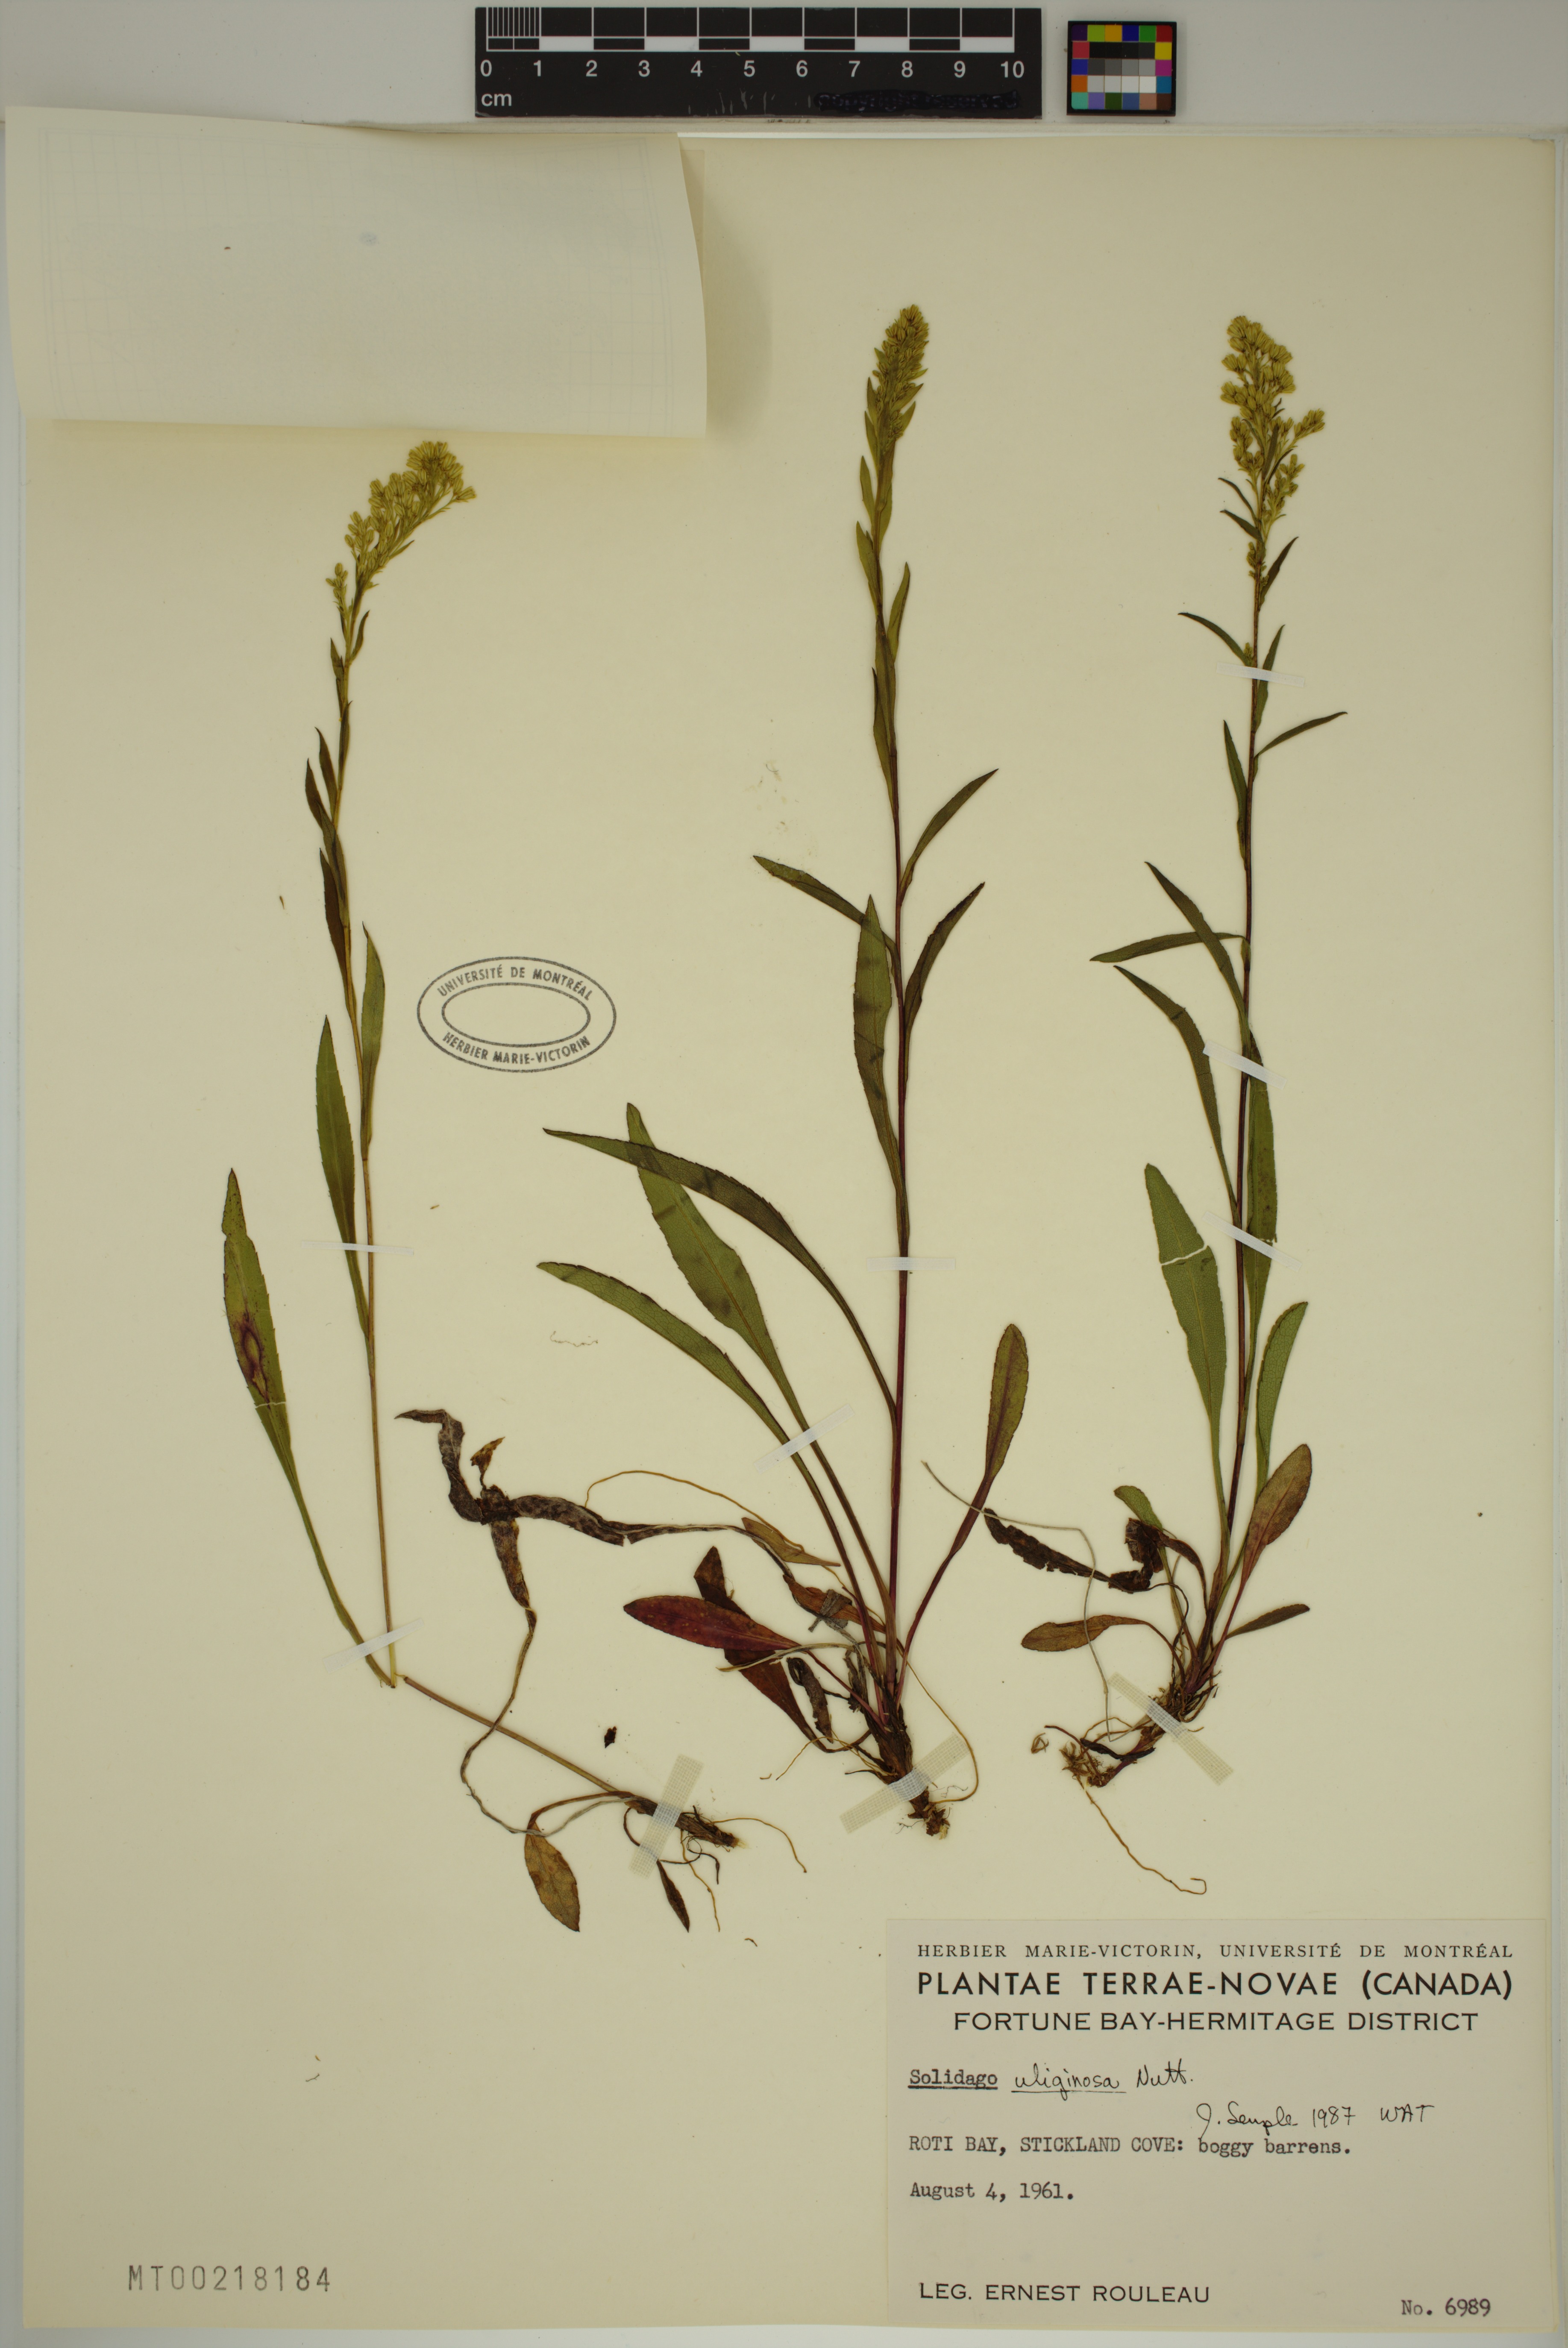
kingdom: Plantae
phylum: Tracheophyta
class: Magnoliopsida
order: Asterales
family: Asteraceae
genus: Solidago
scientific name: Solidago uliginosa
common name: Bog goldenrod
